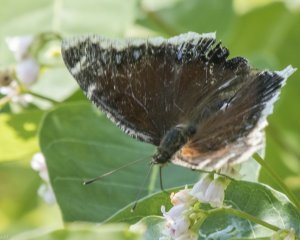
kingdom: Animalia
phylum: Arthropoda
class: Insecta
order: Lepidoptera
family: Nymphalidae
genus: Nymphalis
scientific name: Nymphalis antiopa
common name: Mourning Cloak
